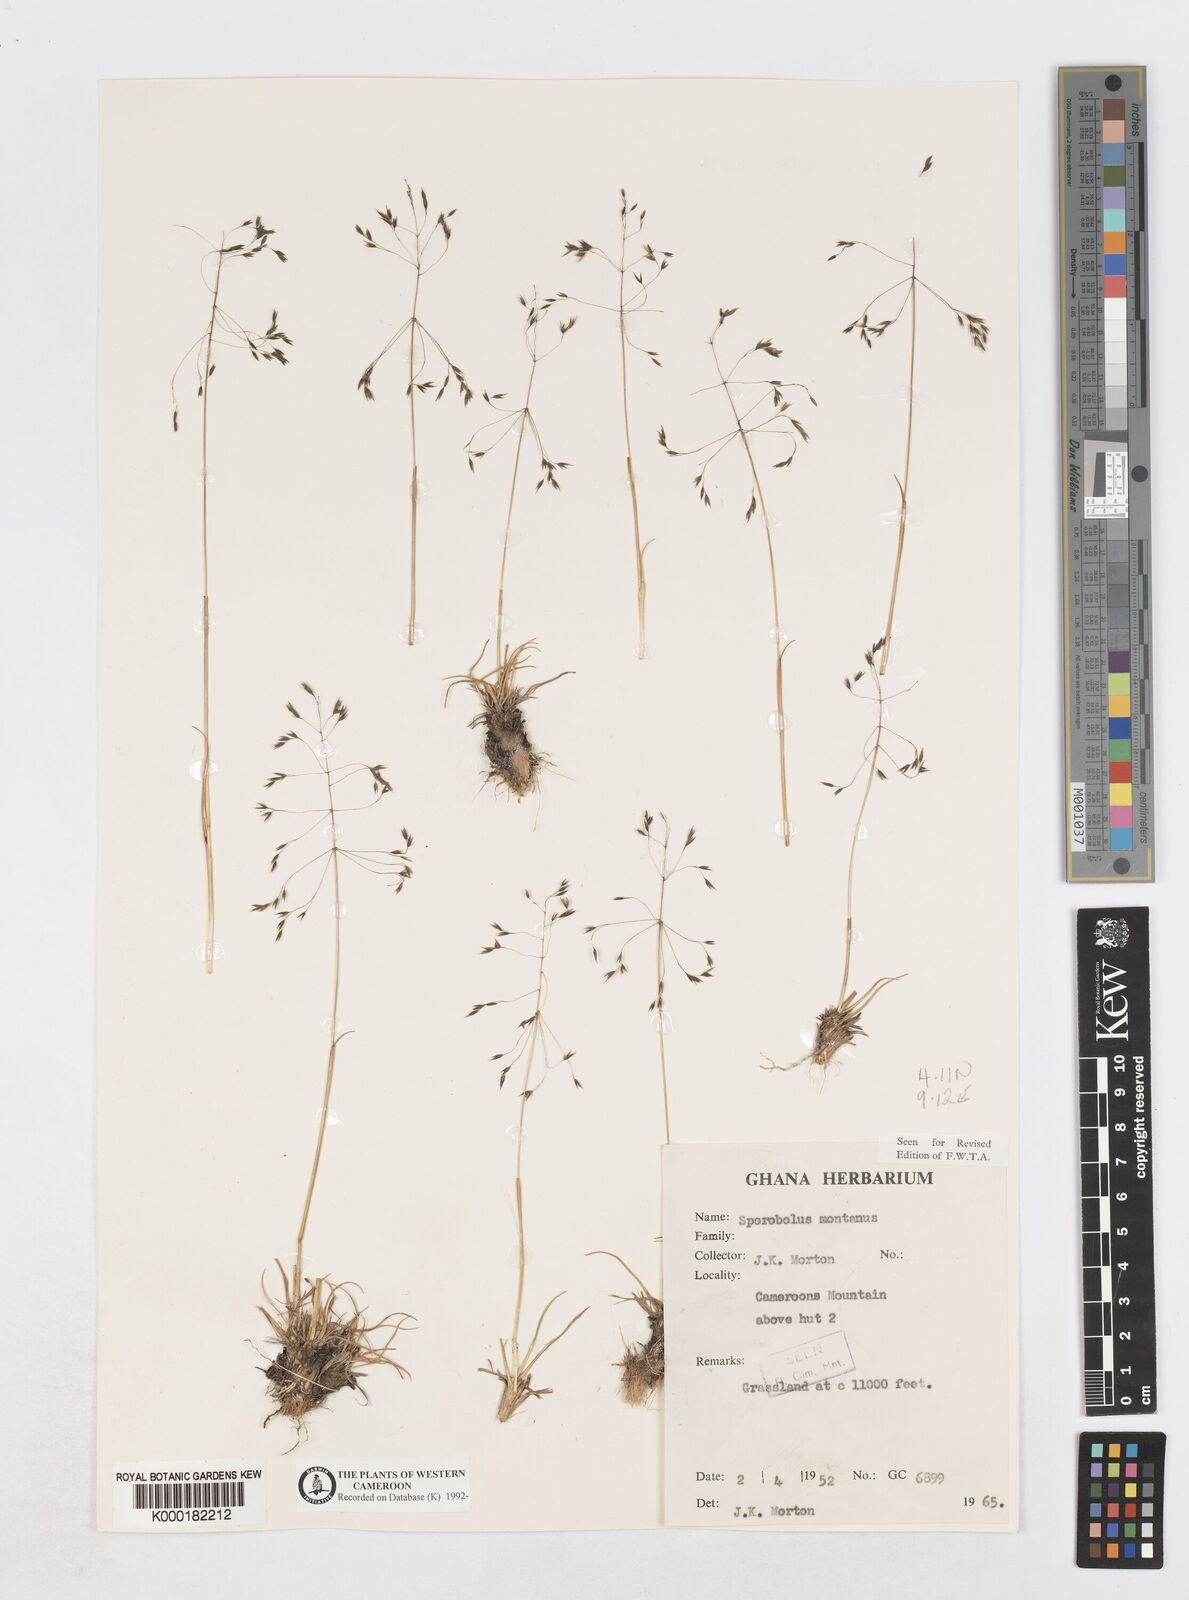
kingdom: Plantae
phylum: Tracheophyta
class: Liliopsida
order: Poales
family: Poaceae
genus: Sporobolus
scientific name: Sporobolus montanus
